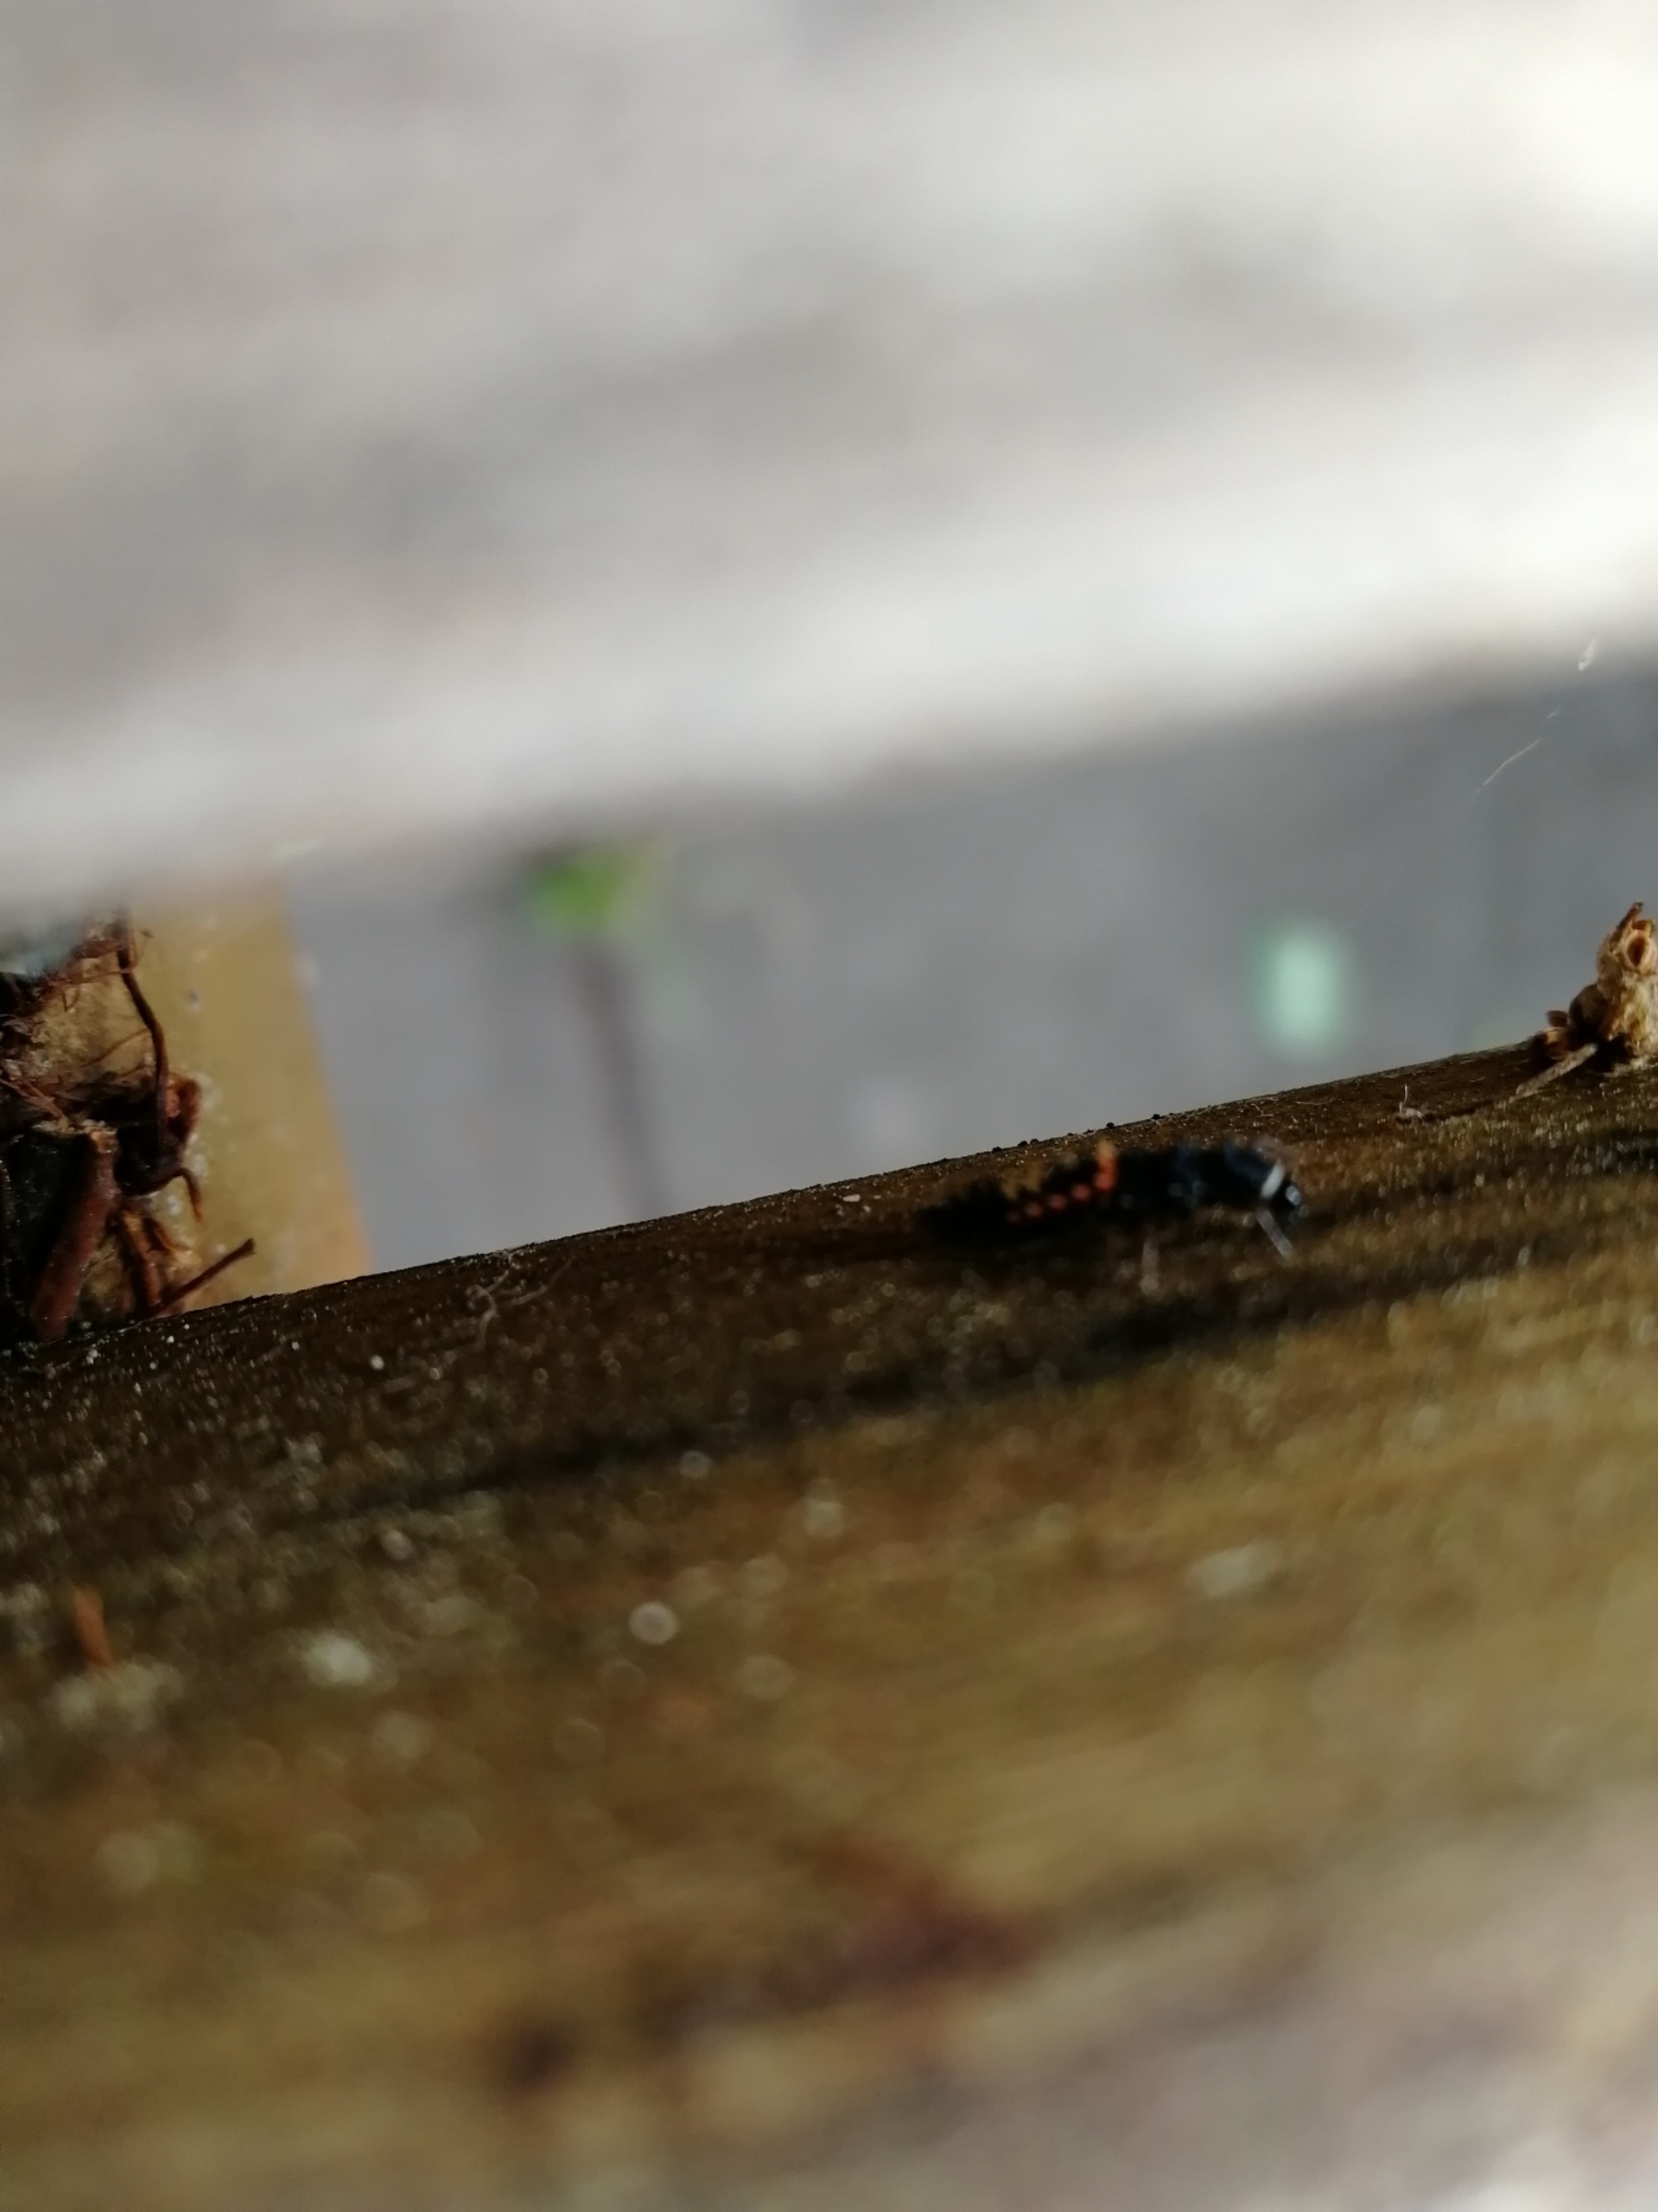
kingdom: Animalia
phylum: Arthropoda
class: Insecta
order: Coleoptera
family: Coccinellidae
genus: Harmonia
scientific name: Harmonia axyridis
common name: Harlekinmariehøne
